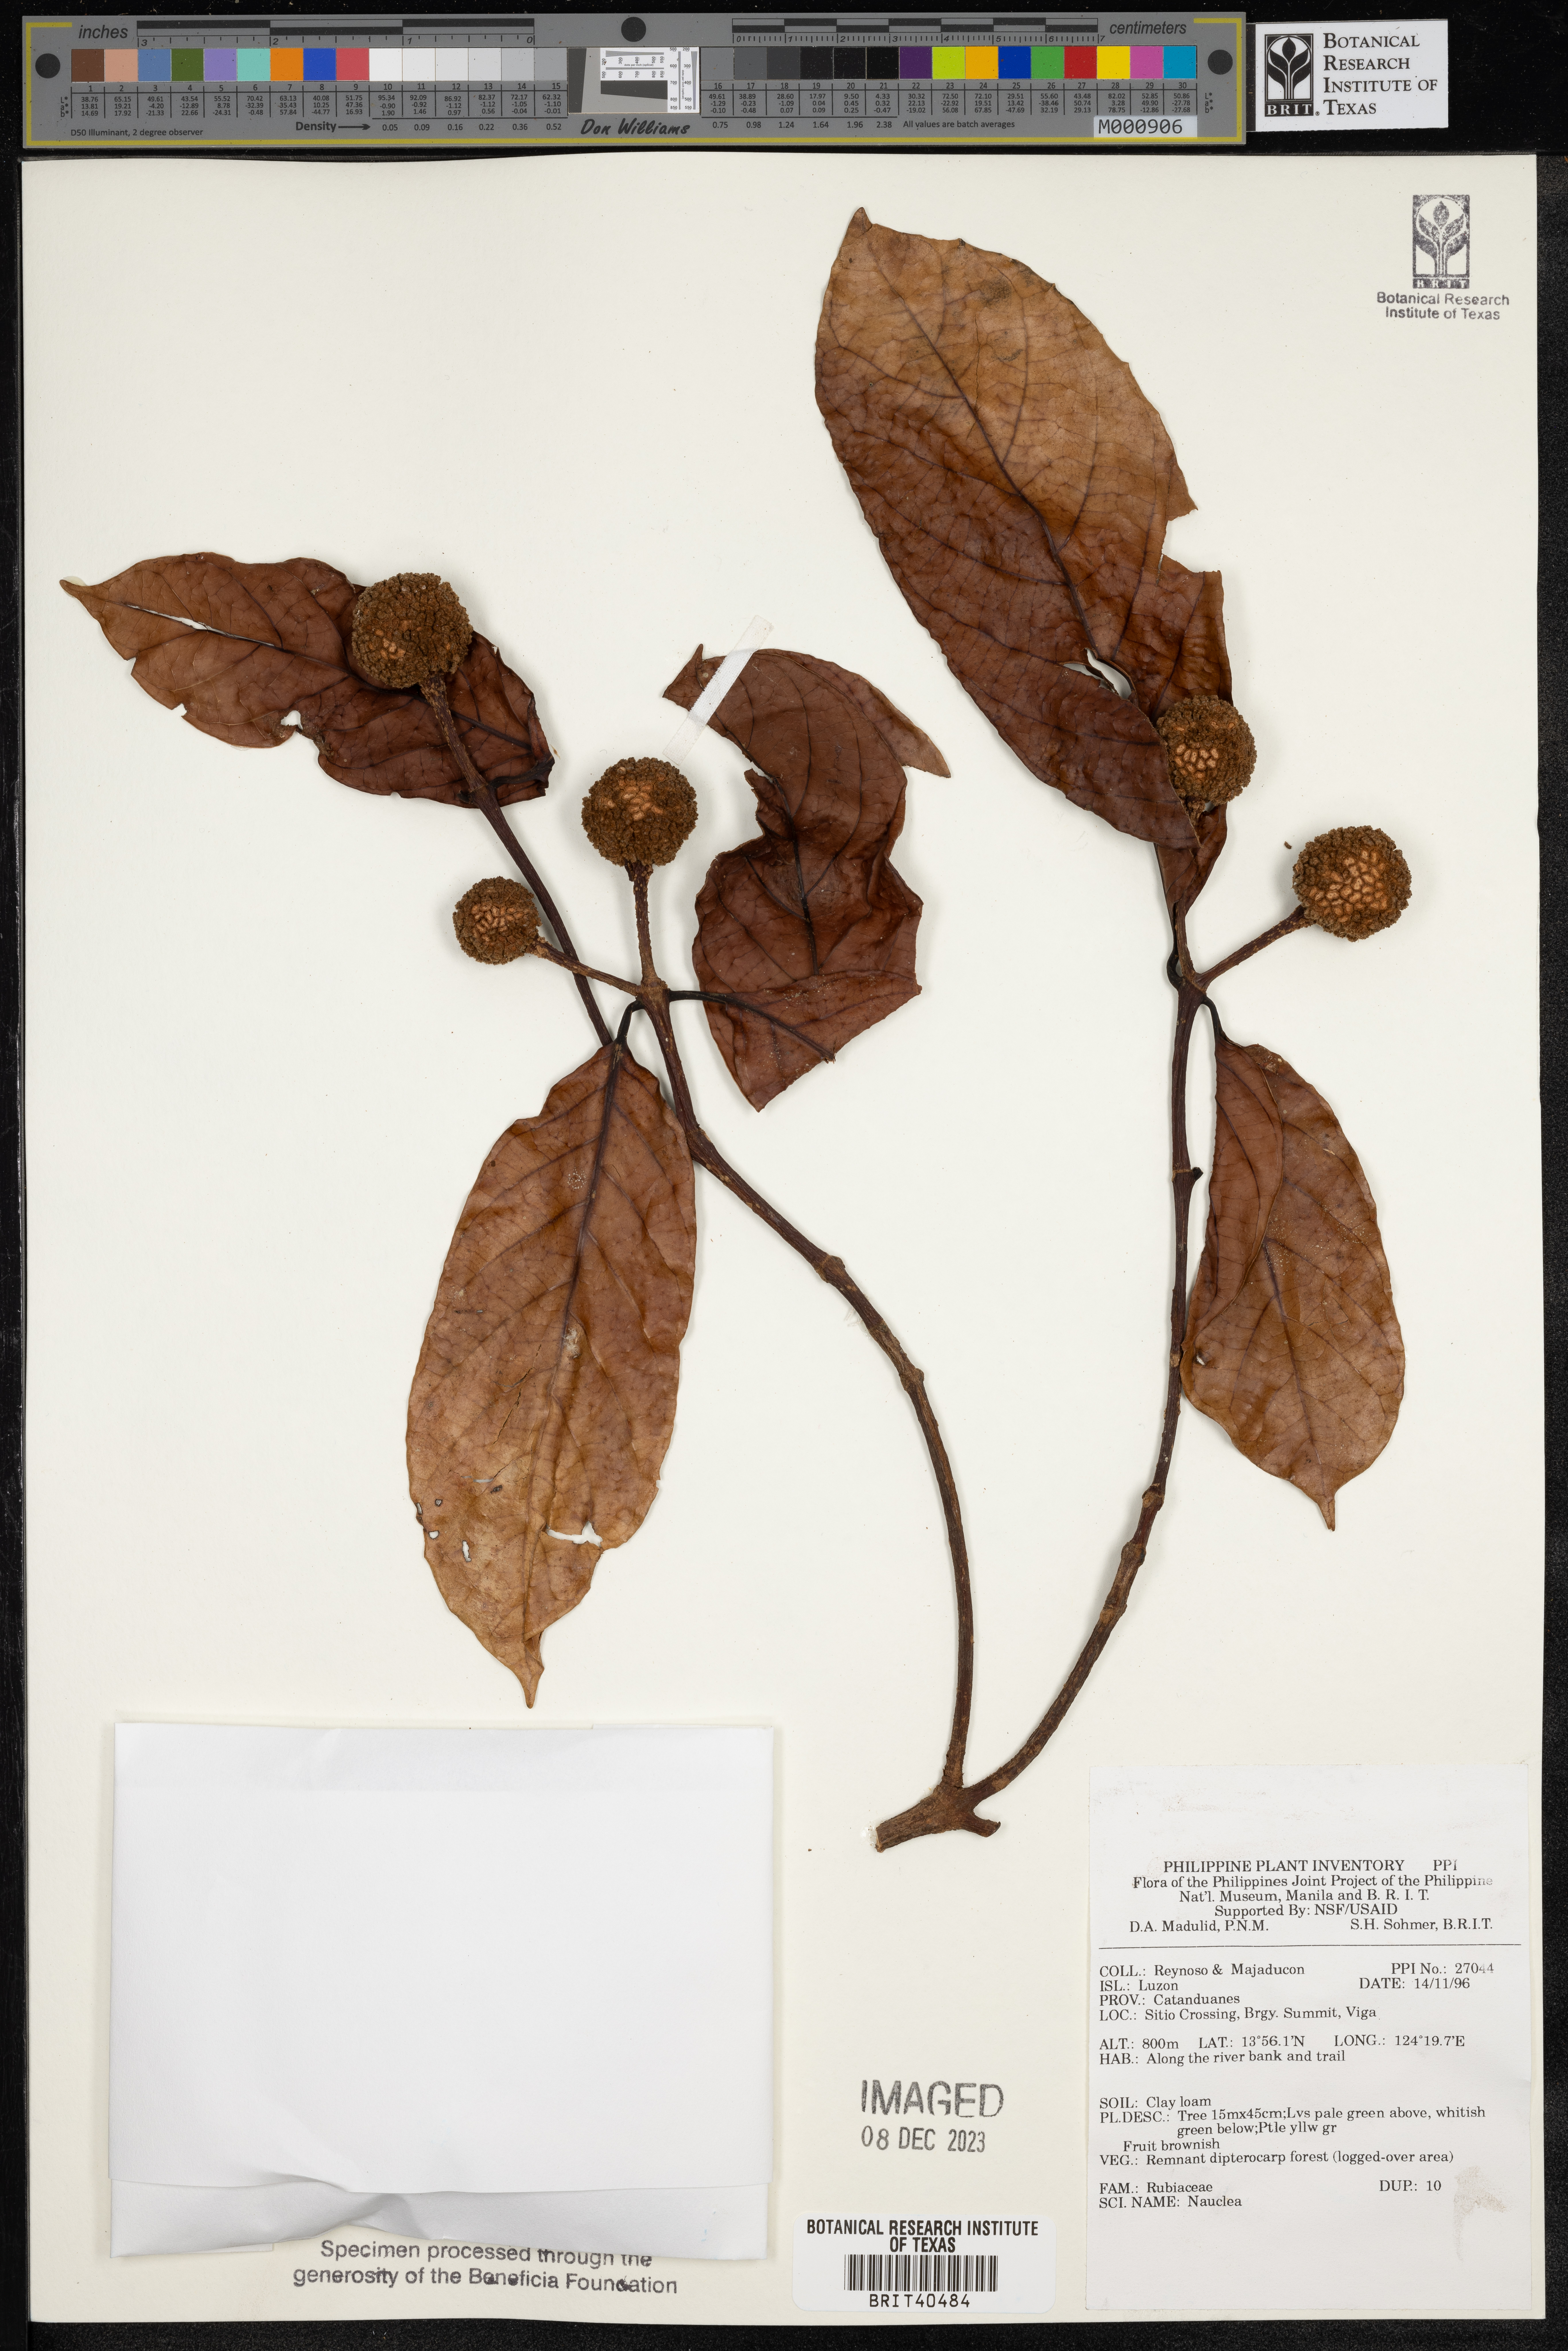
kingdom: Plantae
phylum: Tracheophyta
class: Magnoliopsida
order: Gentianales
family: Rubiaceae
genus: Nauclea
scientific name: Nauclea
